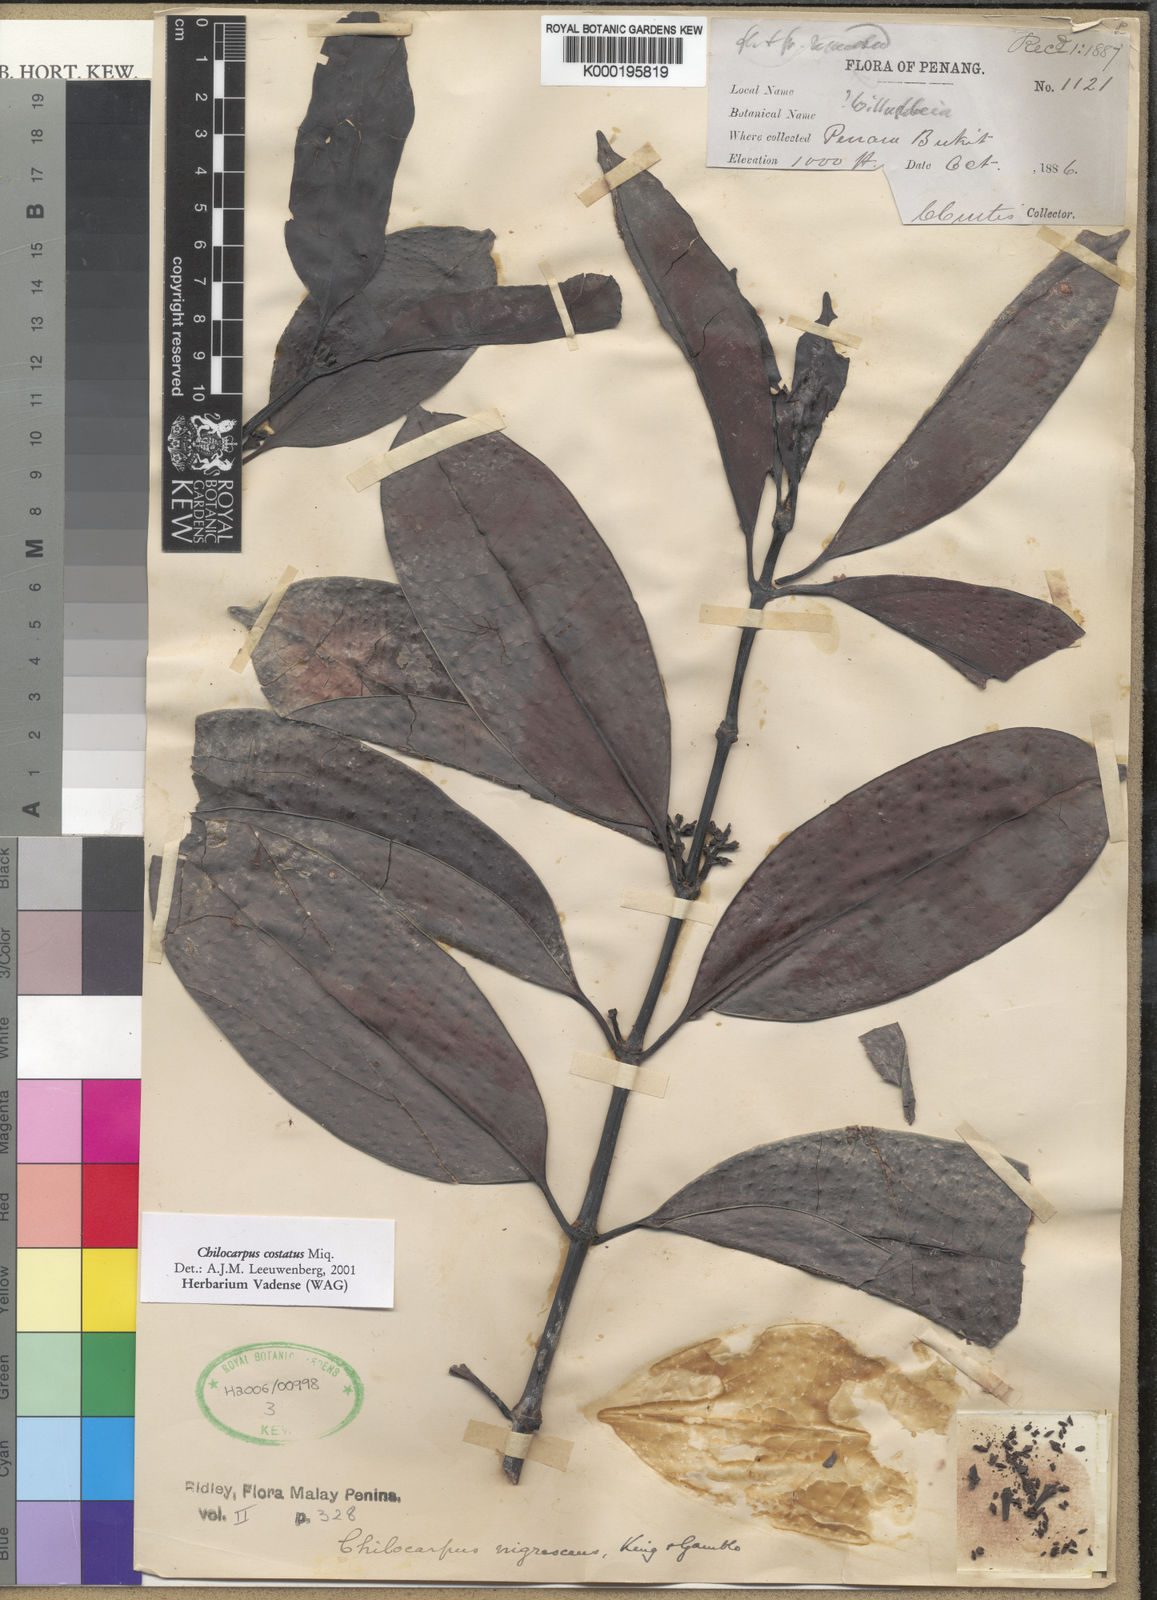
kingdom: Plantae
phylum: Tracheophyta
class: Magnoliopsida
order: Gentianales
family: Apocynaceae
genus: Chilocarpus
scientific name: Chilocarpus vernicosus
